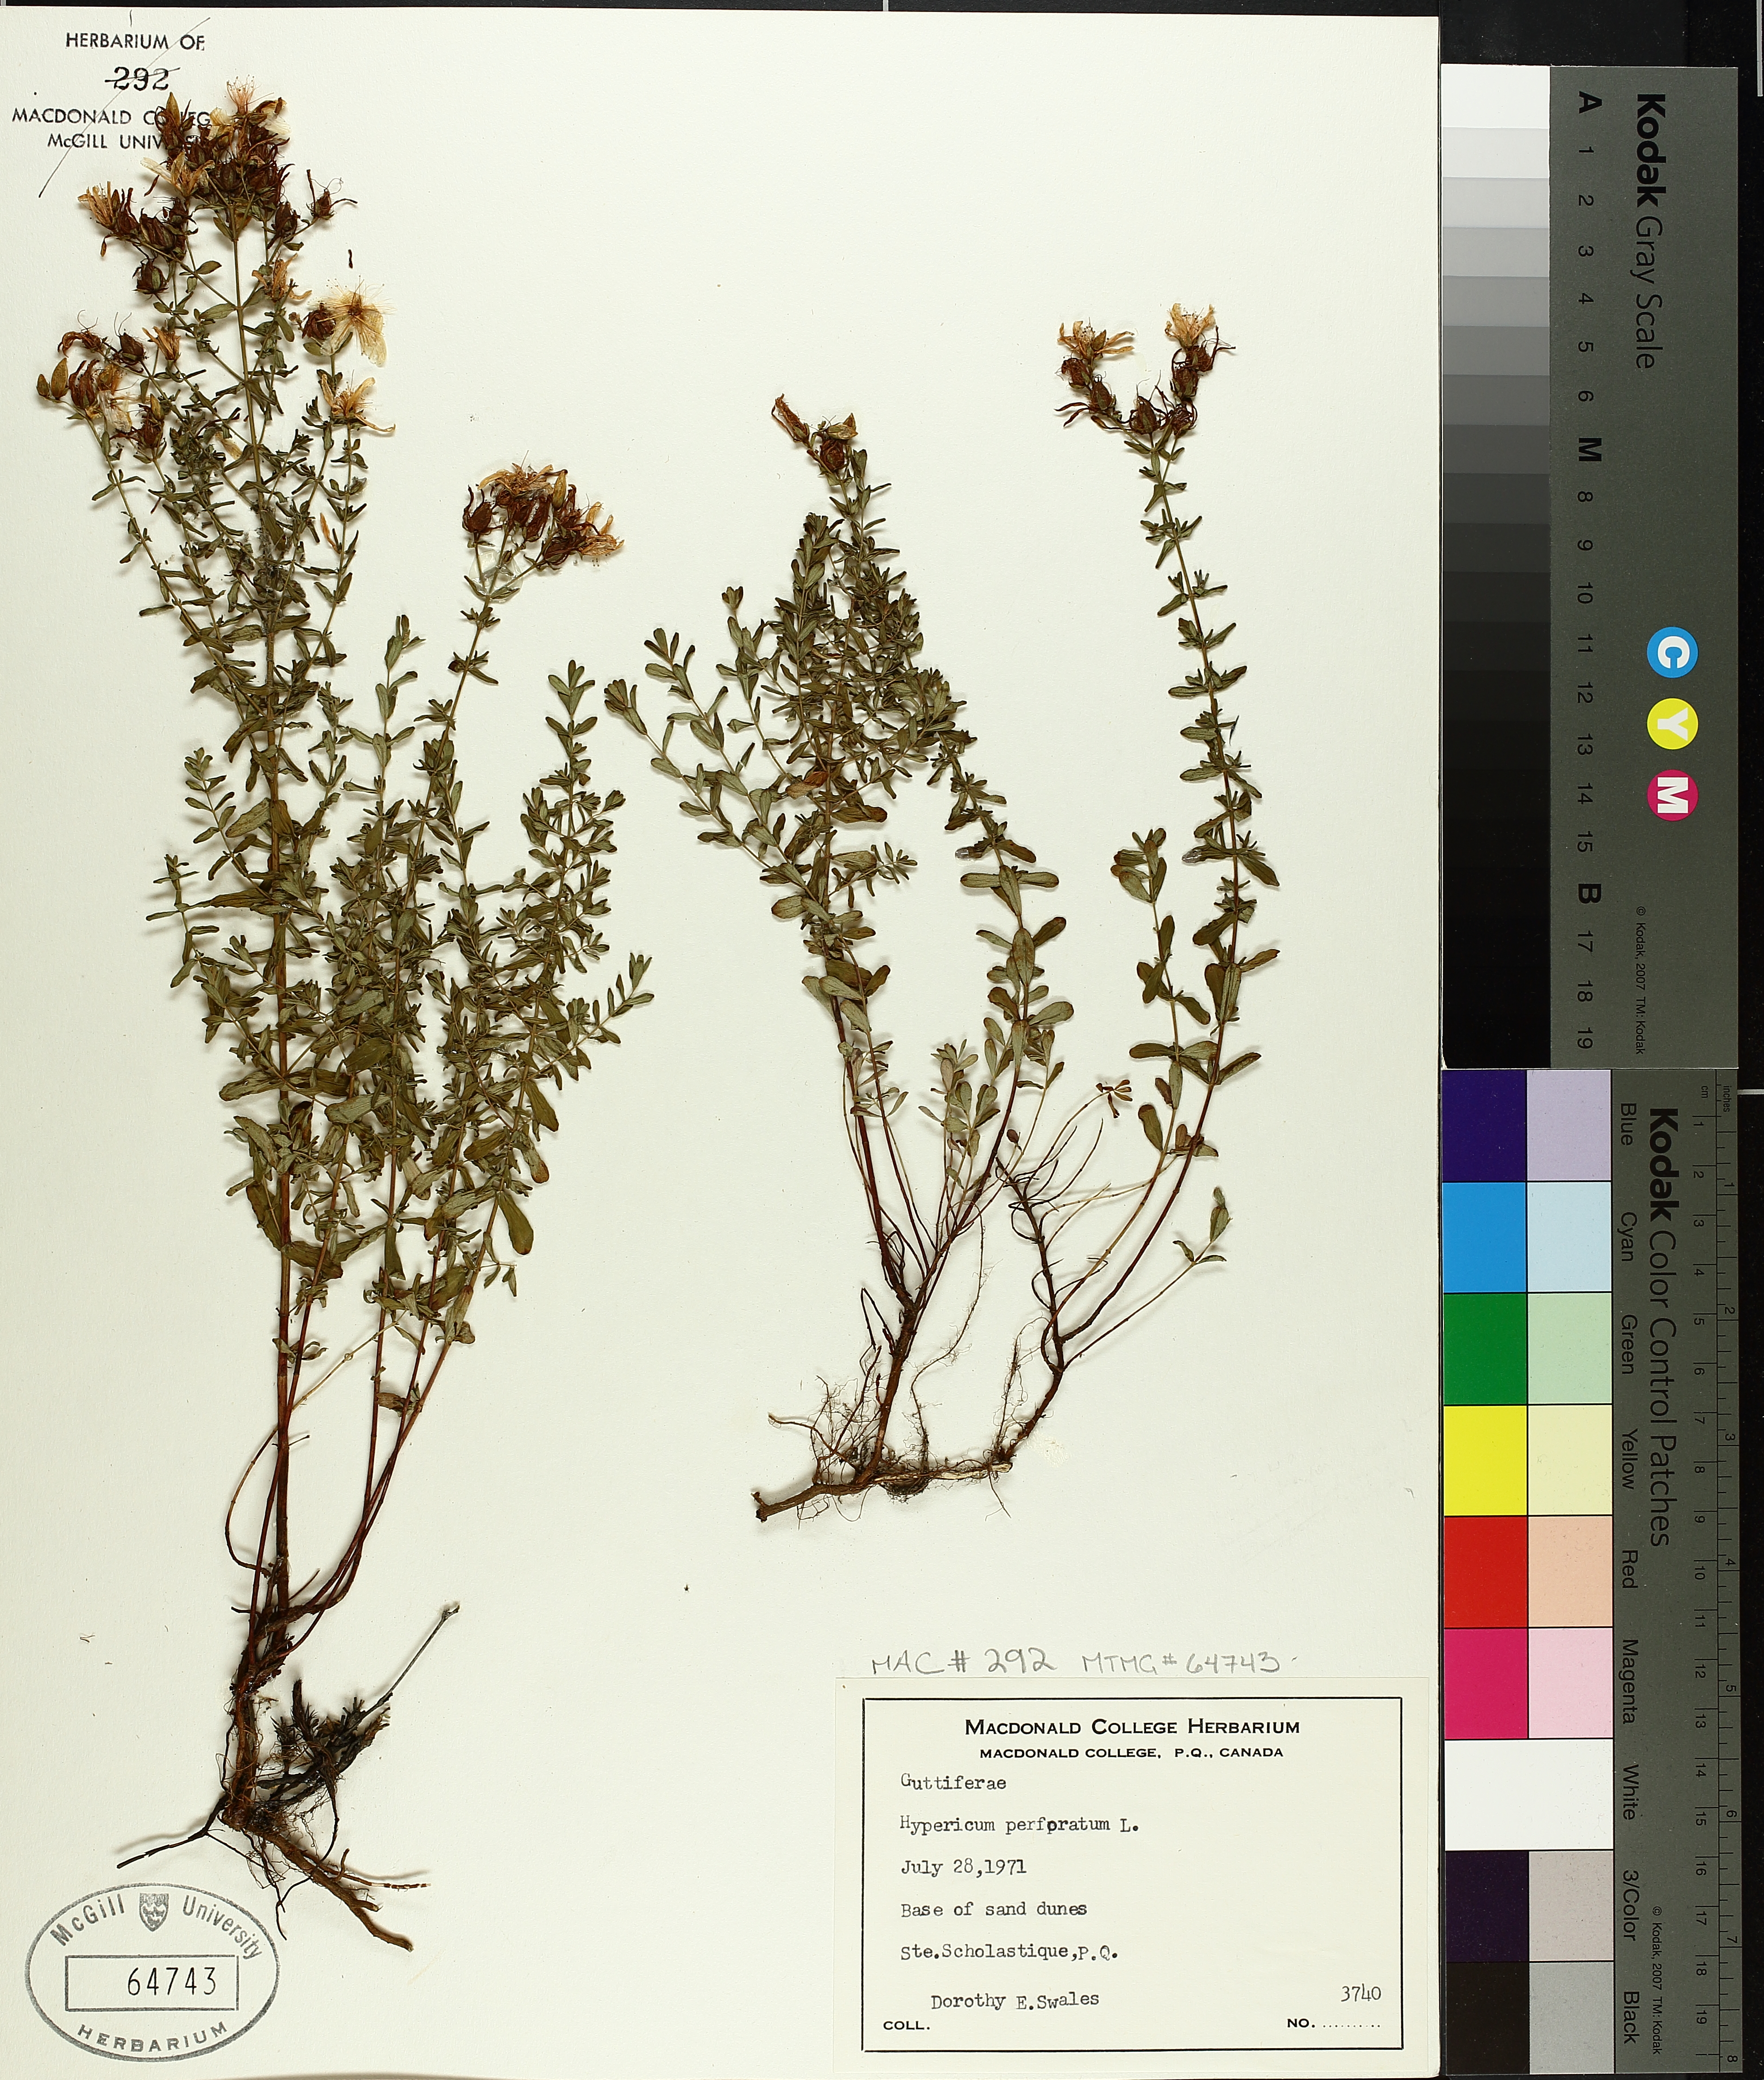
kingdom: Plantae
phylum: Tracheophyta
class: Magnoliopsida
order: Malpighiales
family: Hypericaceae
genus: Hypericum
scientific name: Hypericum perforatum
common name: Common st. johnswort
